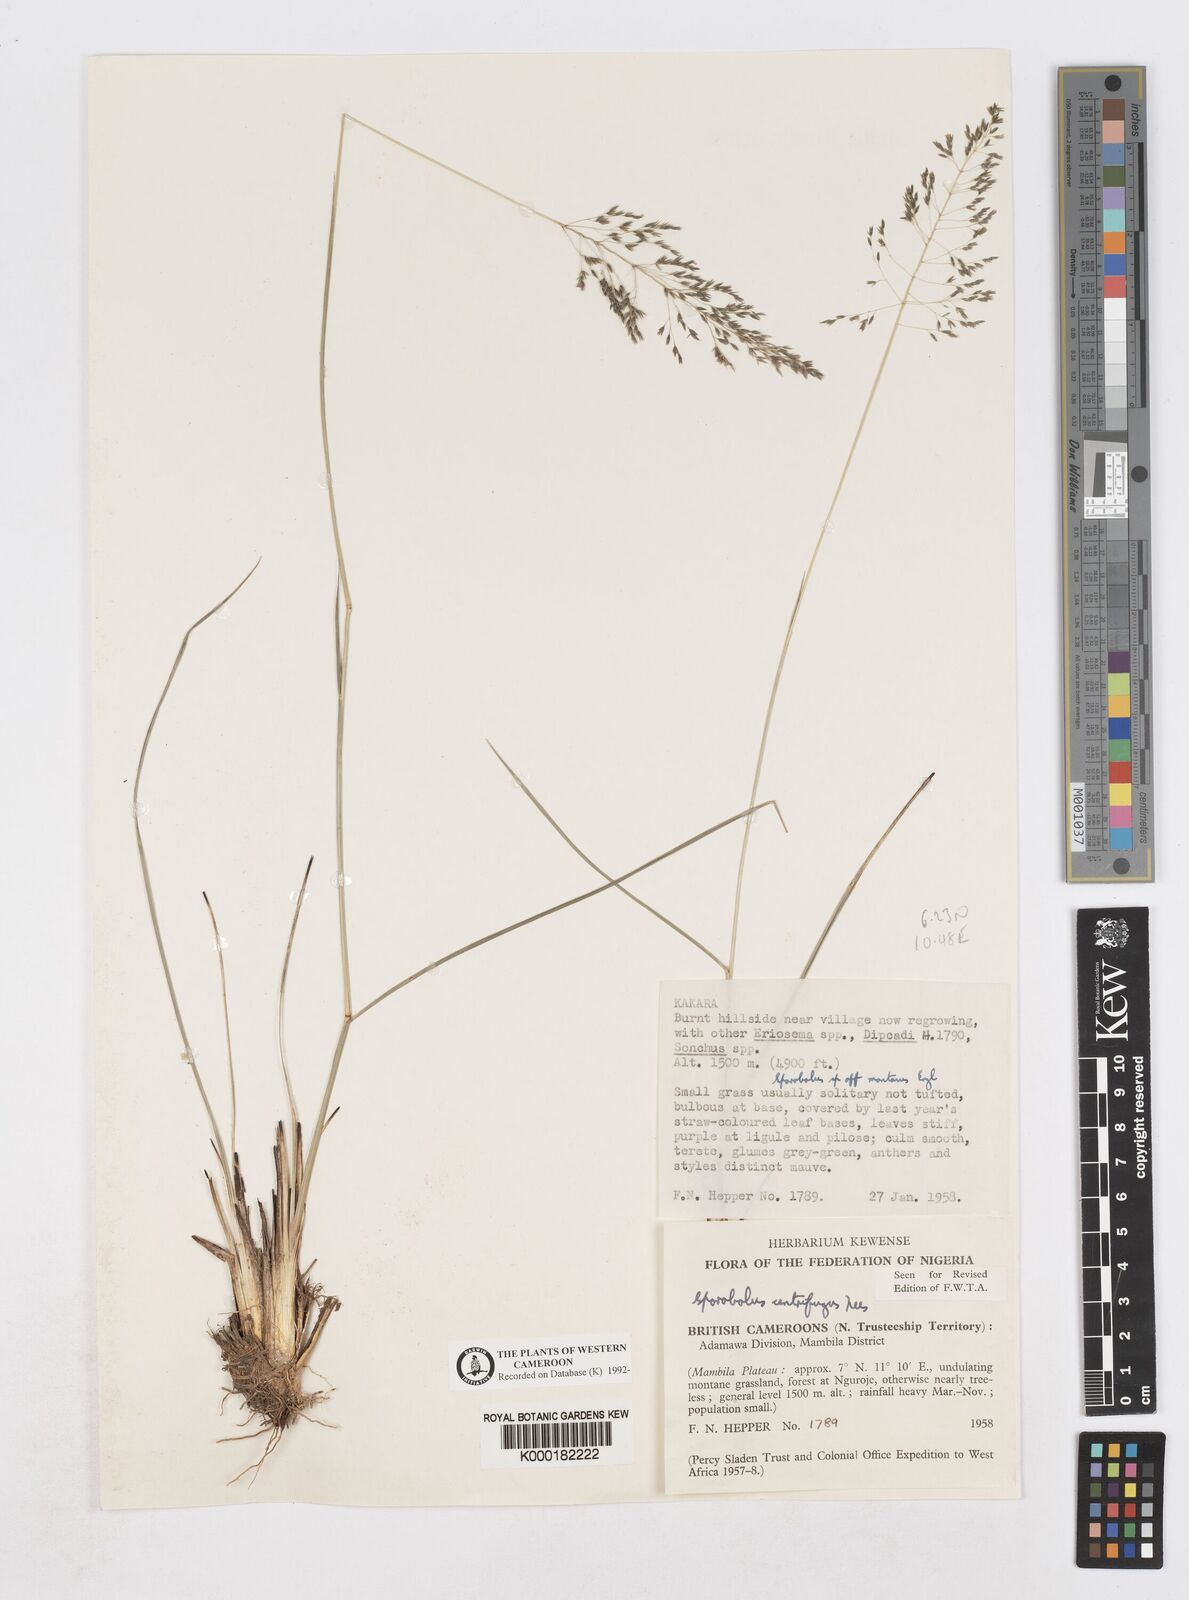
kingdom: Plantae
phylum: Tracheophyta
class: Liliopsida
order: Poales
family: Poaceae
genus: Sporobolus
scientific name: Sporobolus centrifugus
